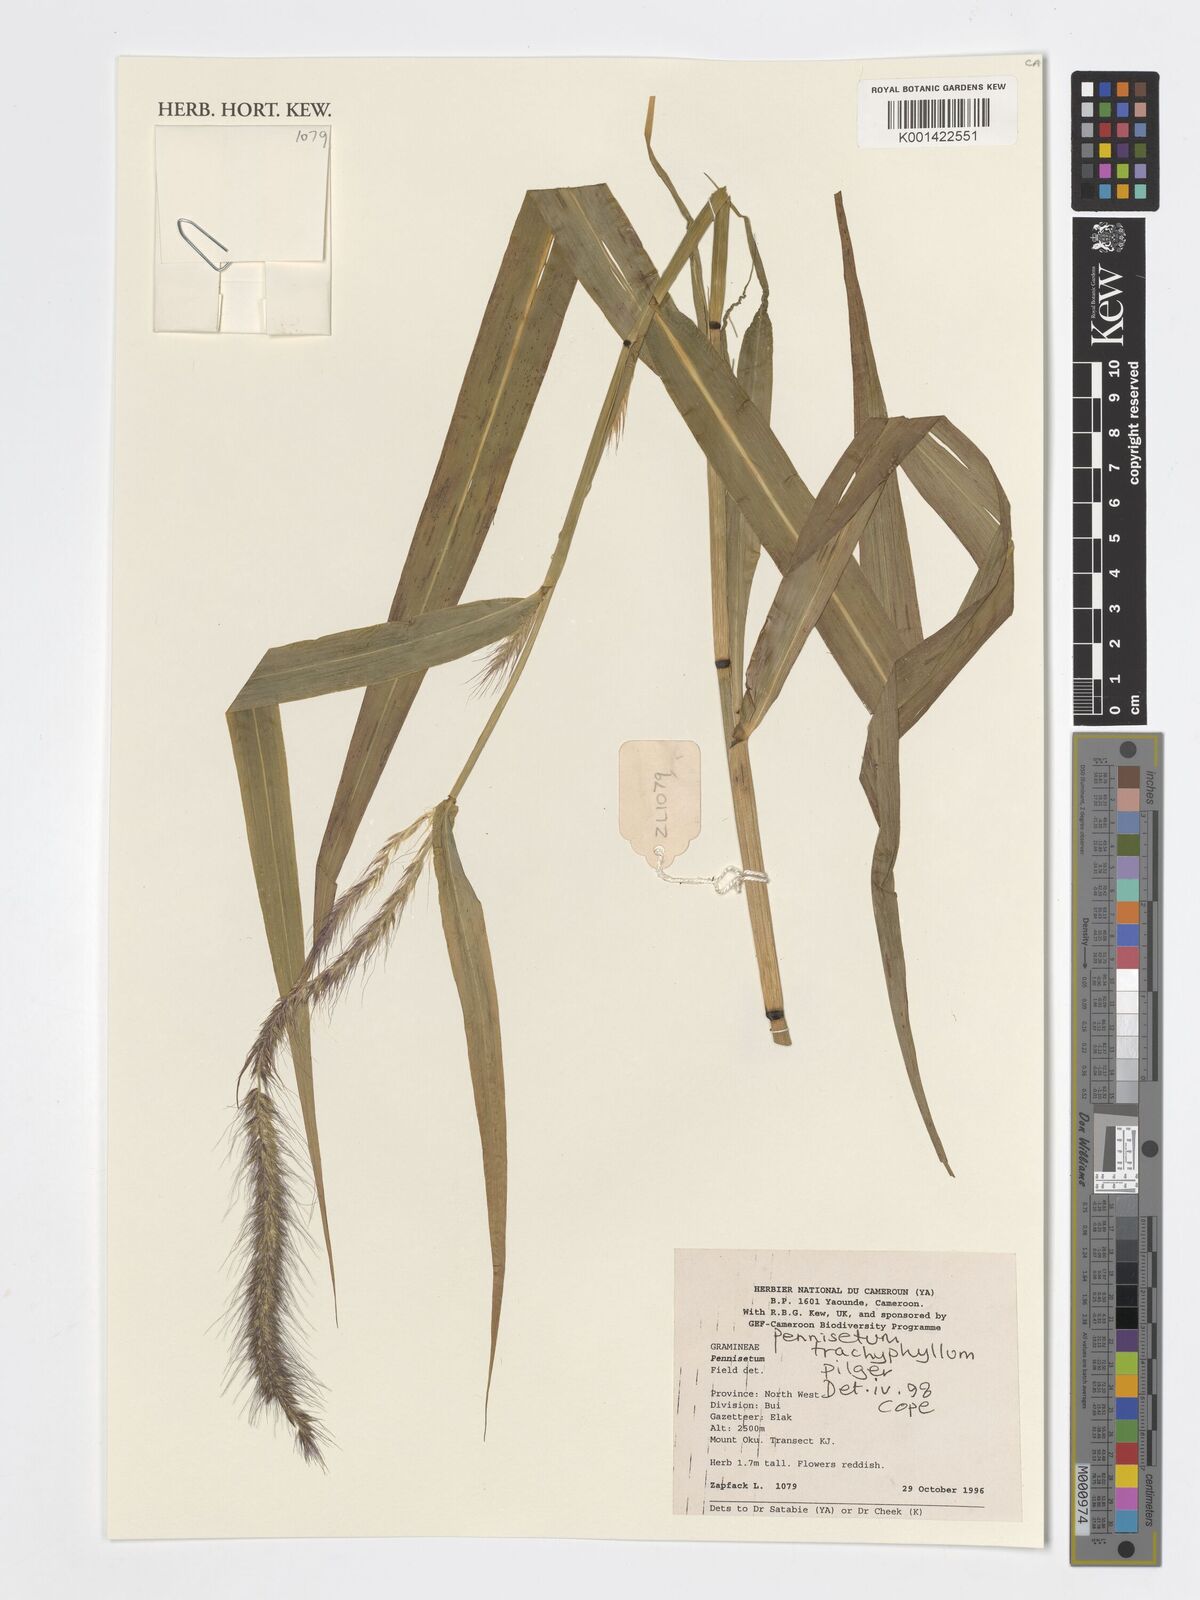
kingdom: Plantae
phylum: Tracheophyta
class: Liliopsida
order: Poales
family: Poaceae
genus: Cenchrus
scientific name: Cenchrus trachyphyllus
